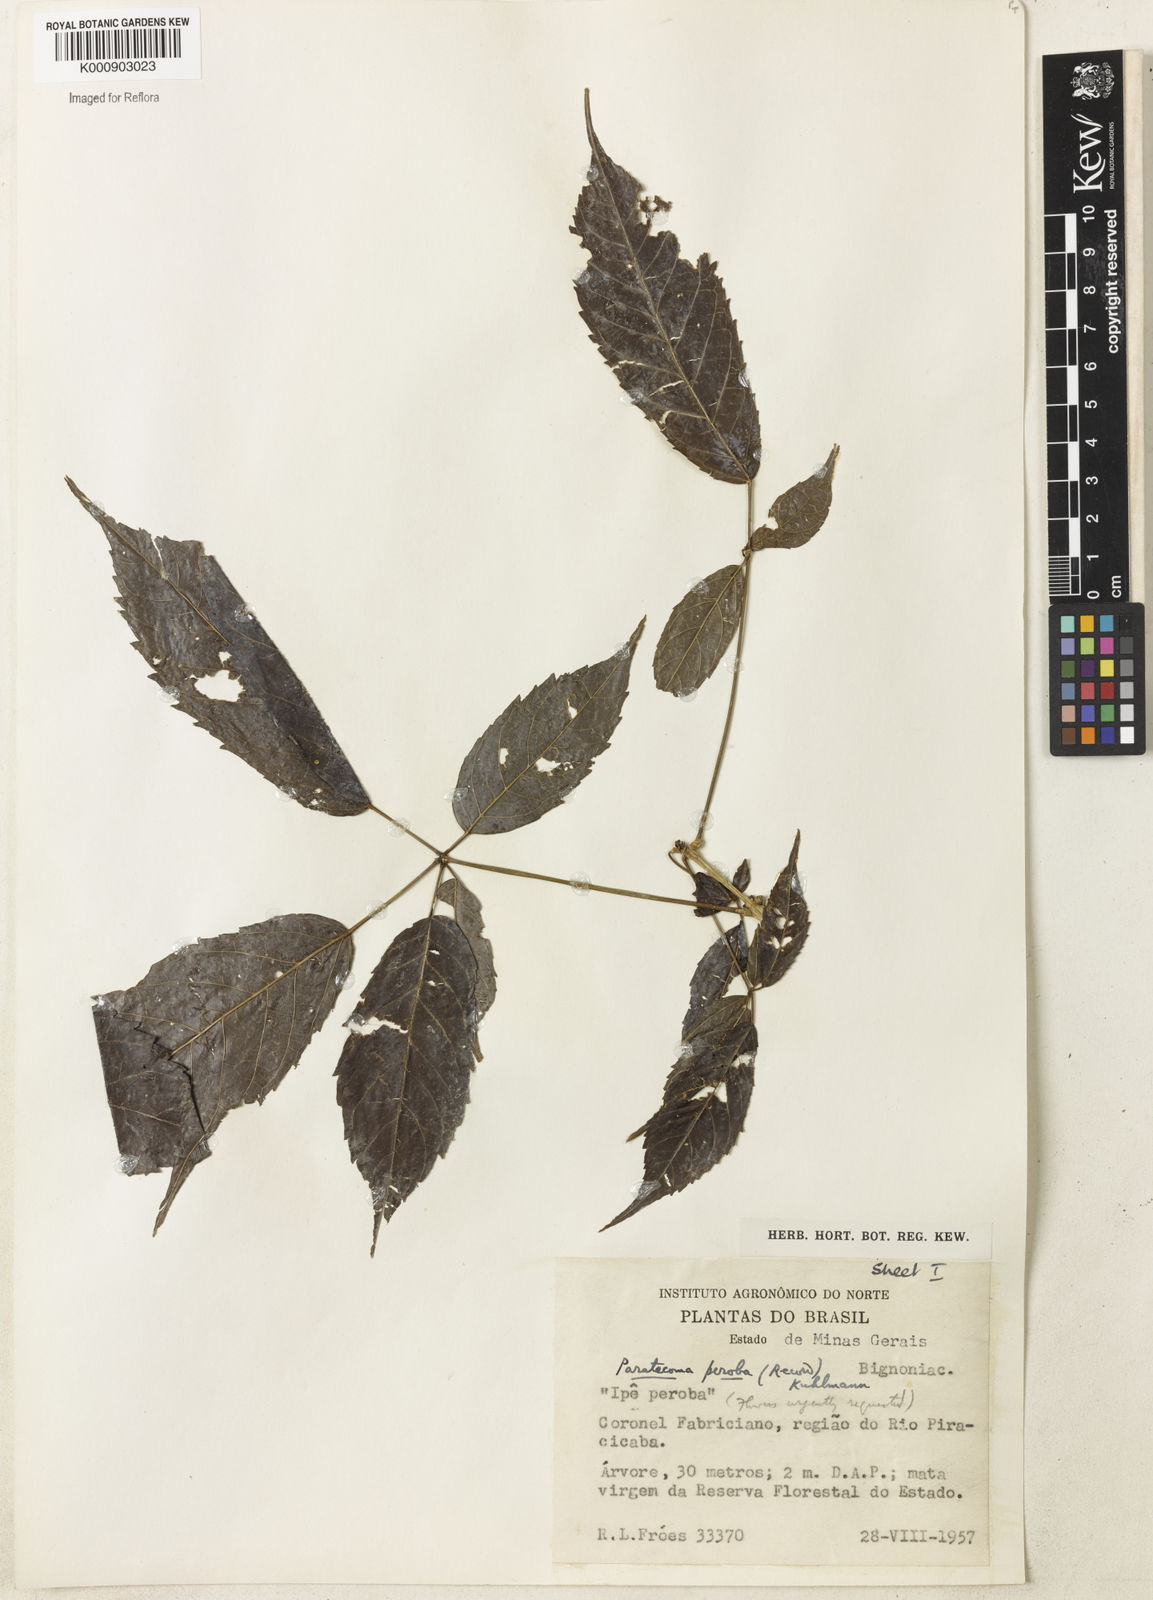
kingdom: Plantae
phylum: Tracheophyta
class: Magnoliopsida
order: Lamiales
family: Bignoniaceae
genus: Paratecoma
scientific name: Paratecoma peroba
